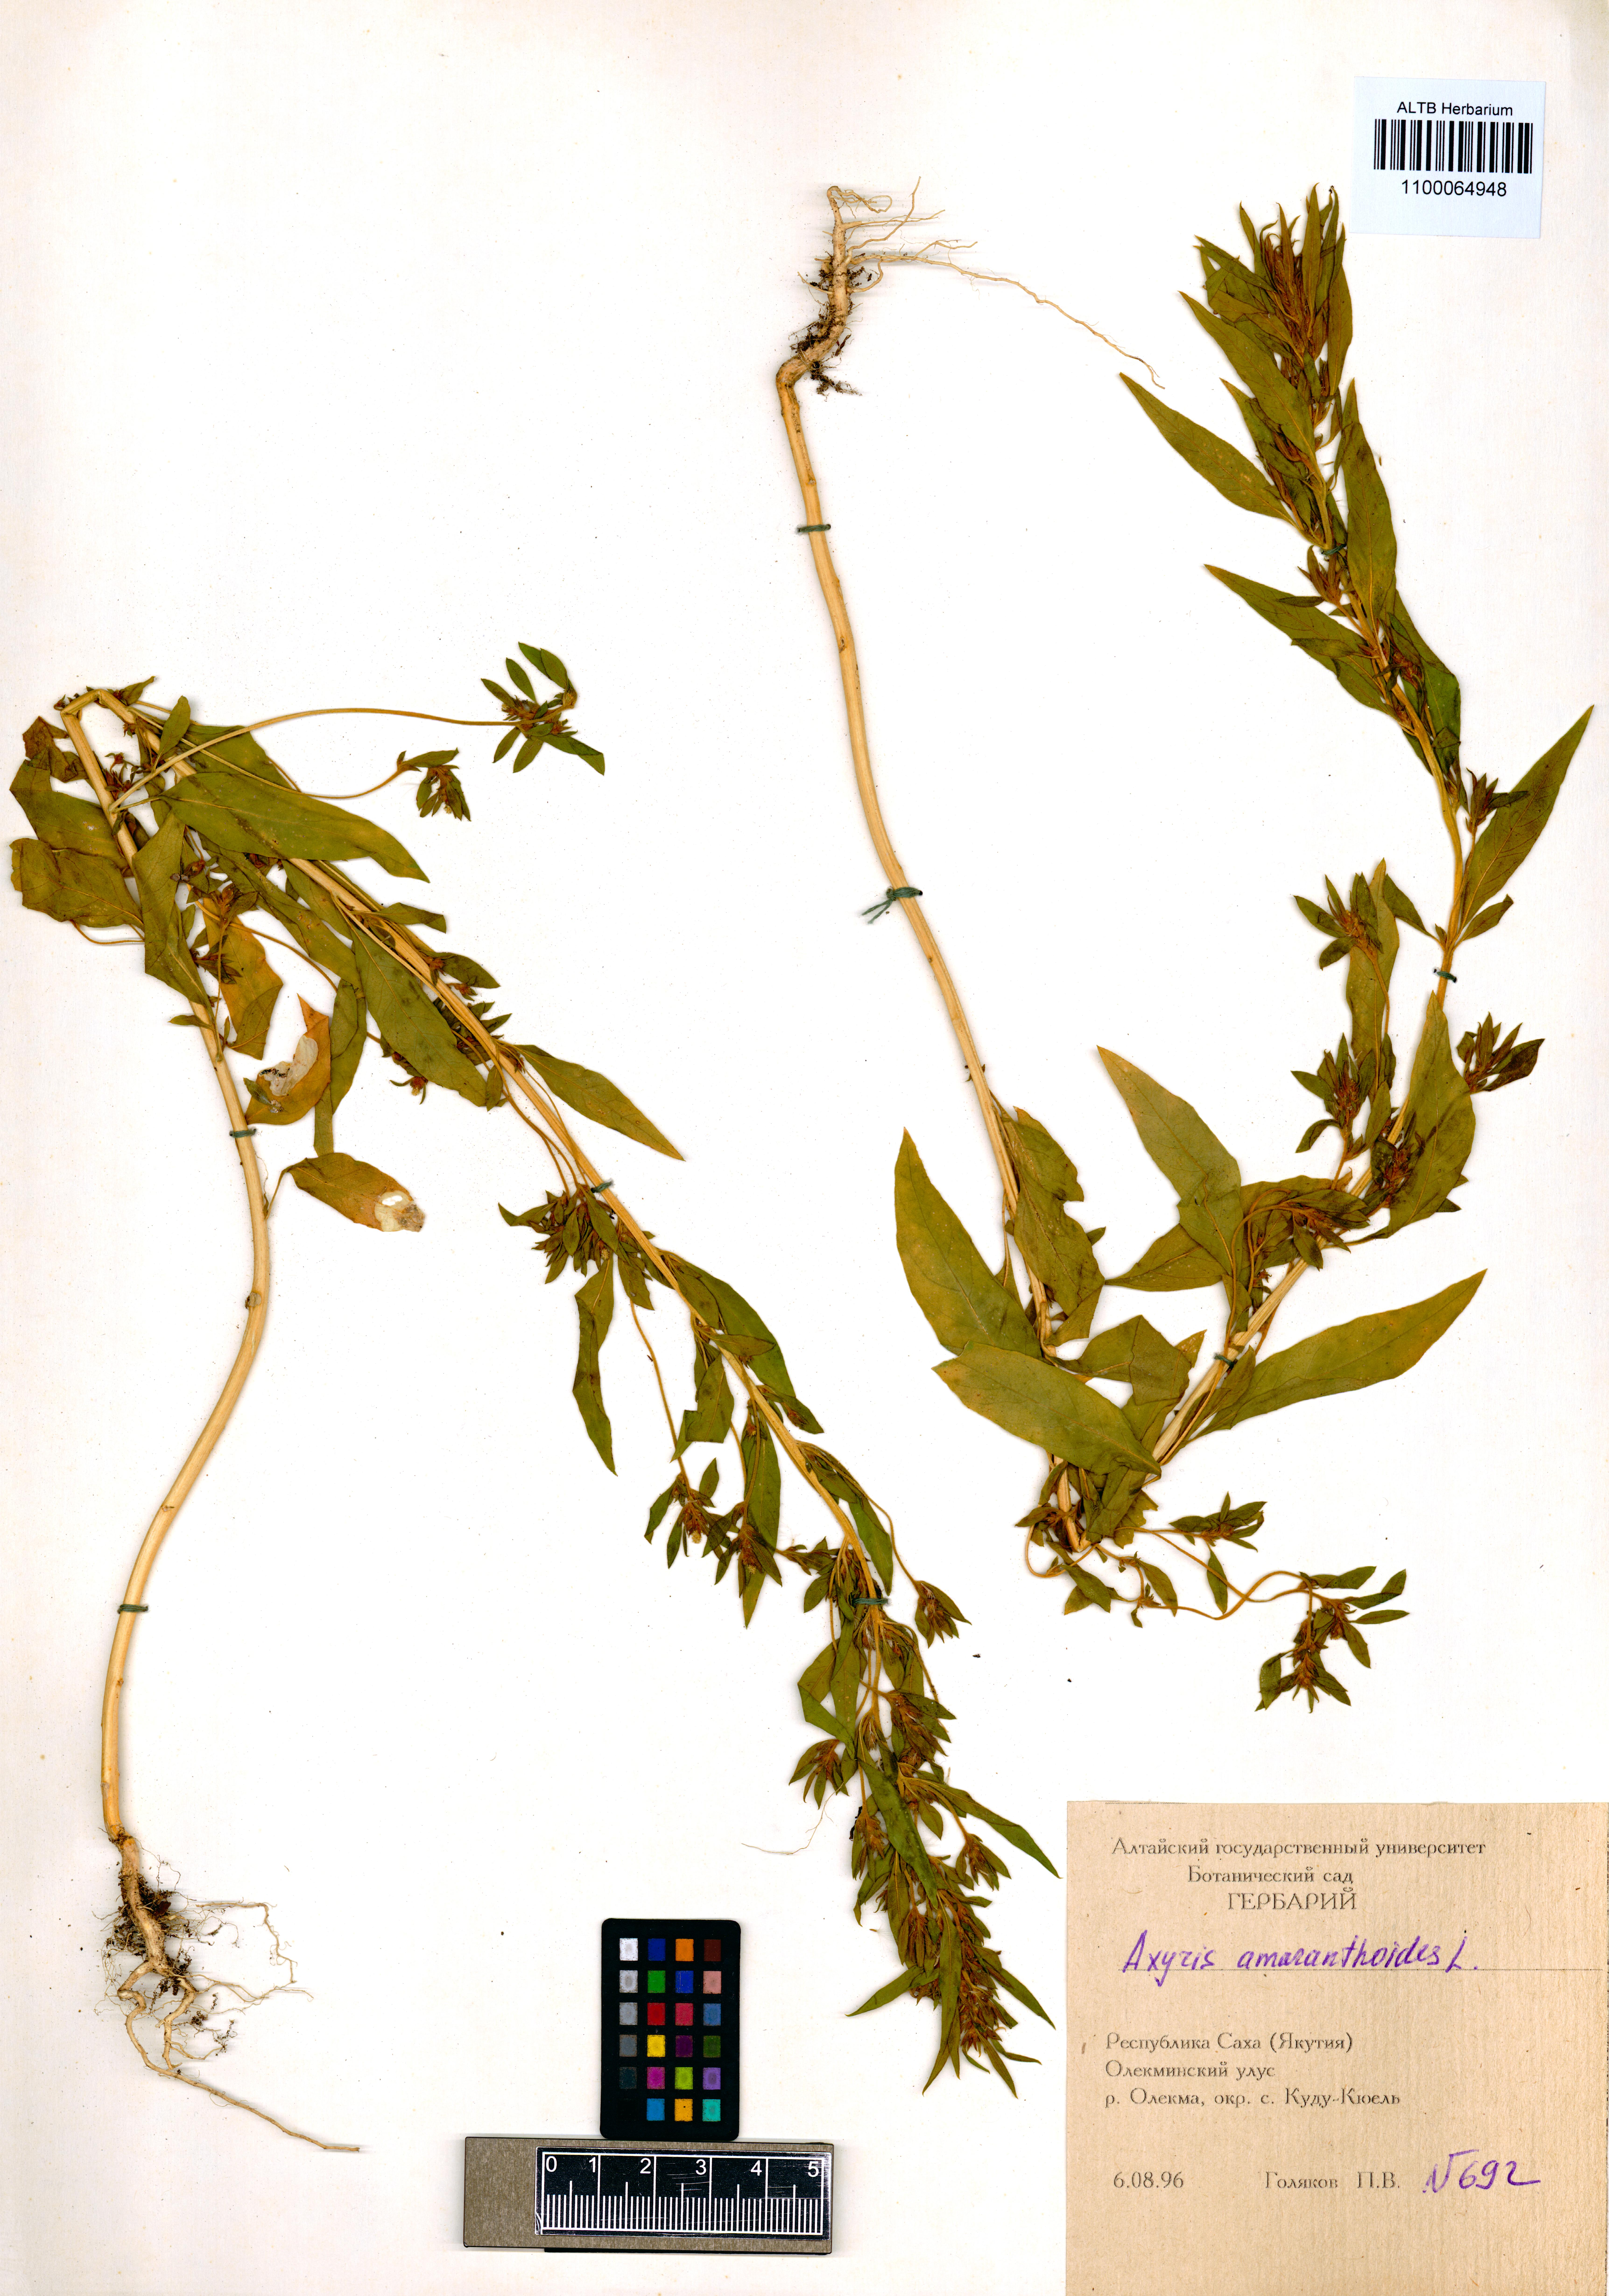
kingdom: Plantae
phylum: Tracheophyta
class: Magnoliopsida
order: Caryophyllales
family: Amaranthaceae
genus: Axyris
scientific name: Axyris amaranthoides
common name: Russian pigweed
